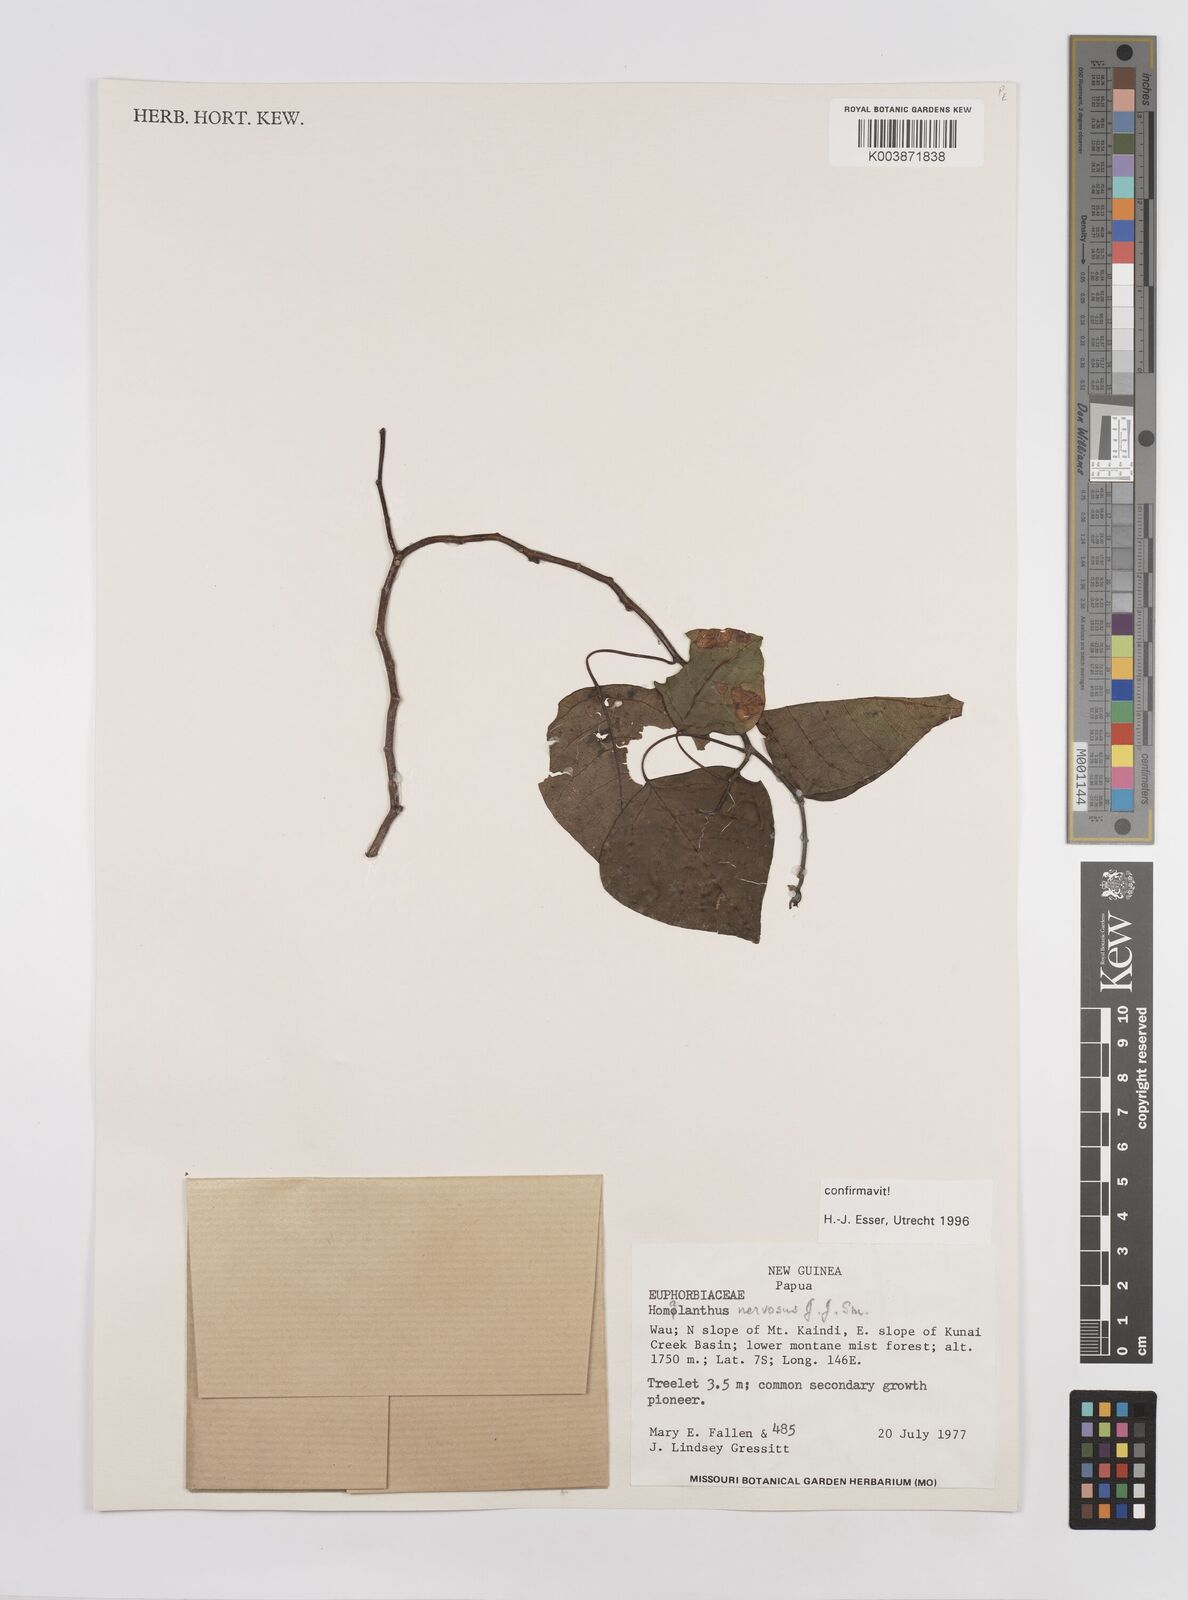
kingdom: Plantae
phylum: Tracheophyta
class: Magnoliopsida
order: Malpighiales
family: Euphorbiaceae
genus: Homalanthus
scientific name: Homalanthus nervosus
